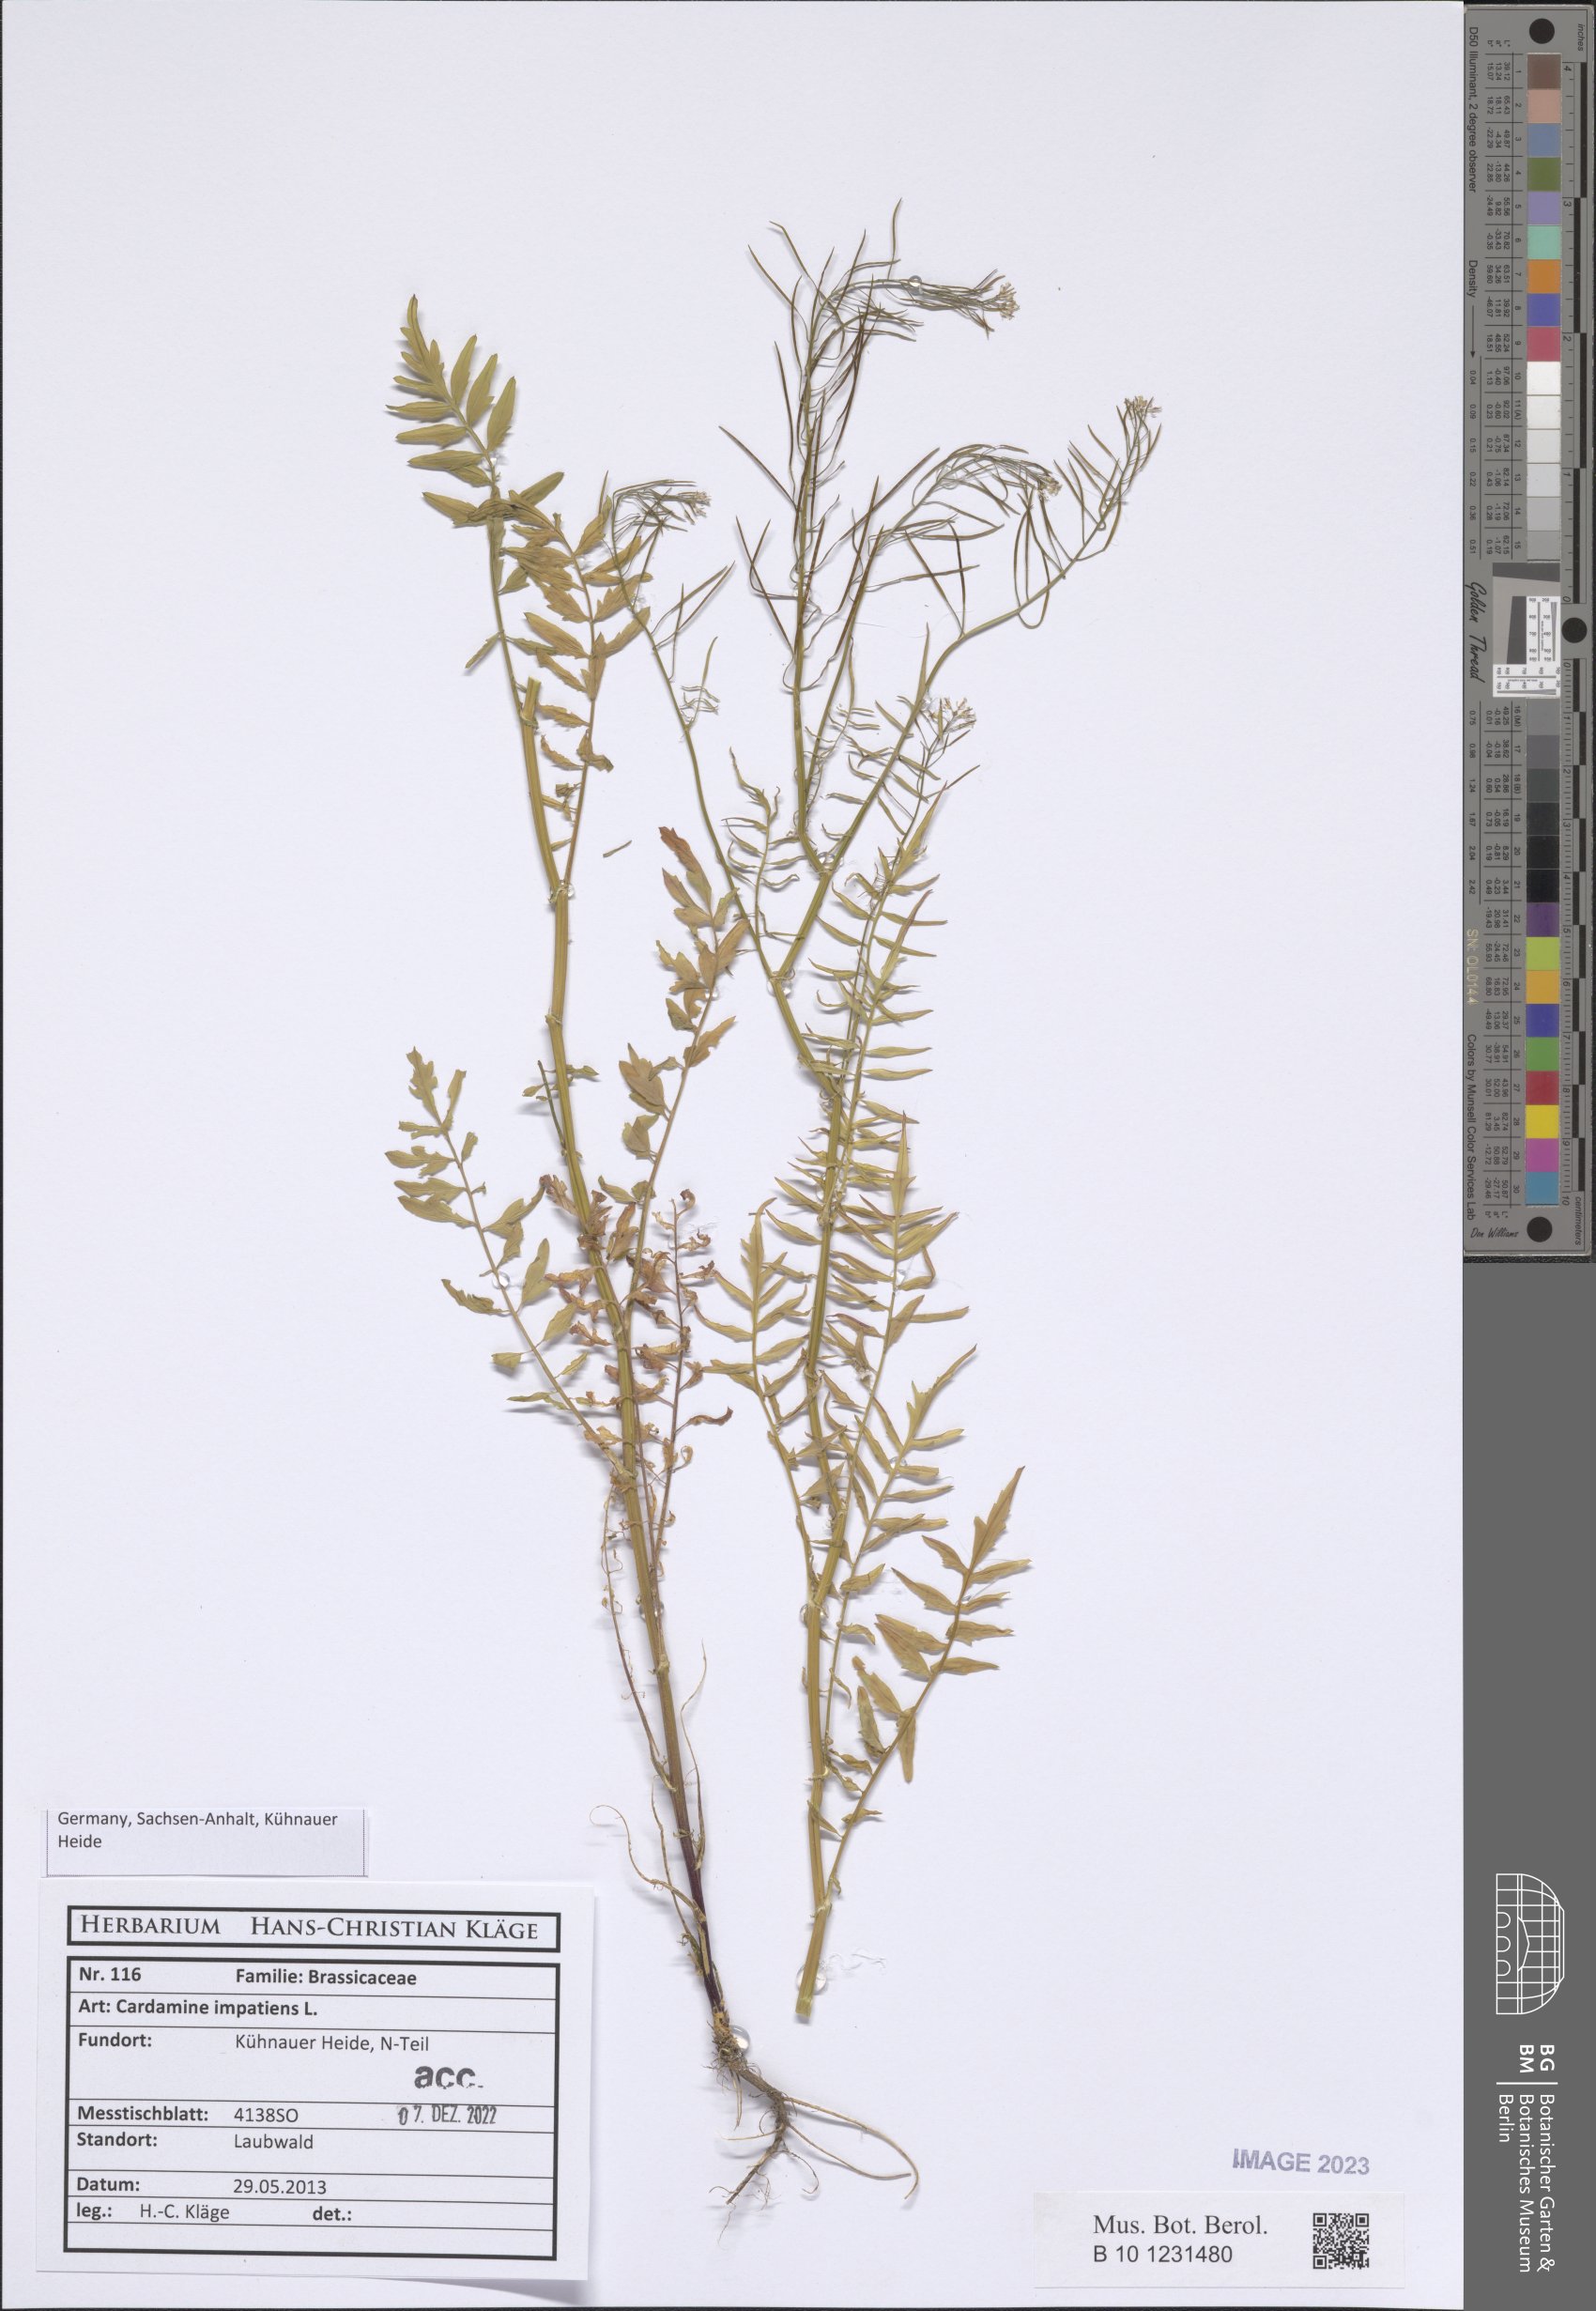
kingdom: Plantae
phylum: Tracheophyta
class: Magnoliopsida
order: Brassicales
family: Brassicaceae
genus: Cardamine
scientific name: Cardamine impatiens
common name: Narrow-leaved bitter-cress
